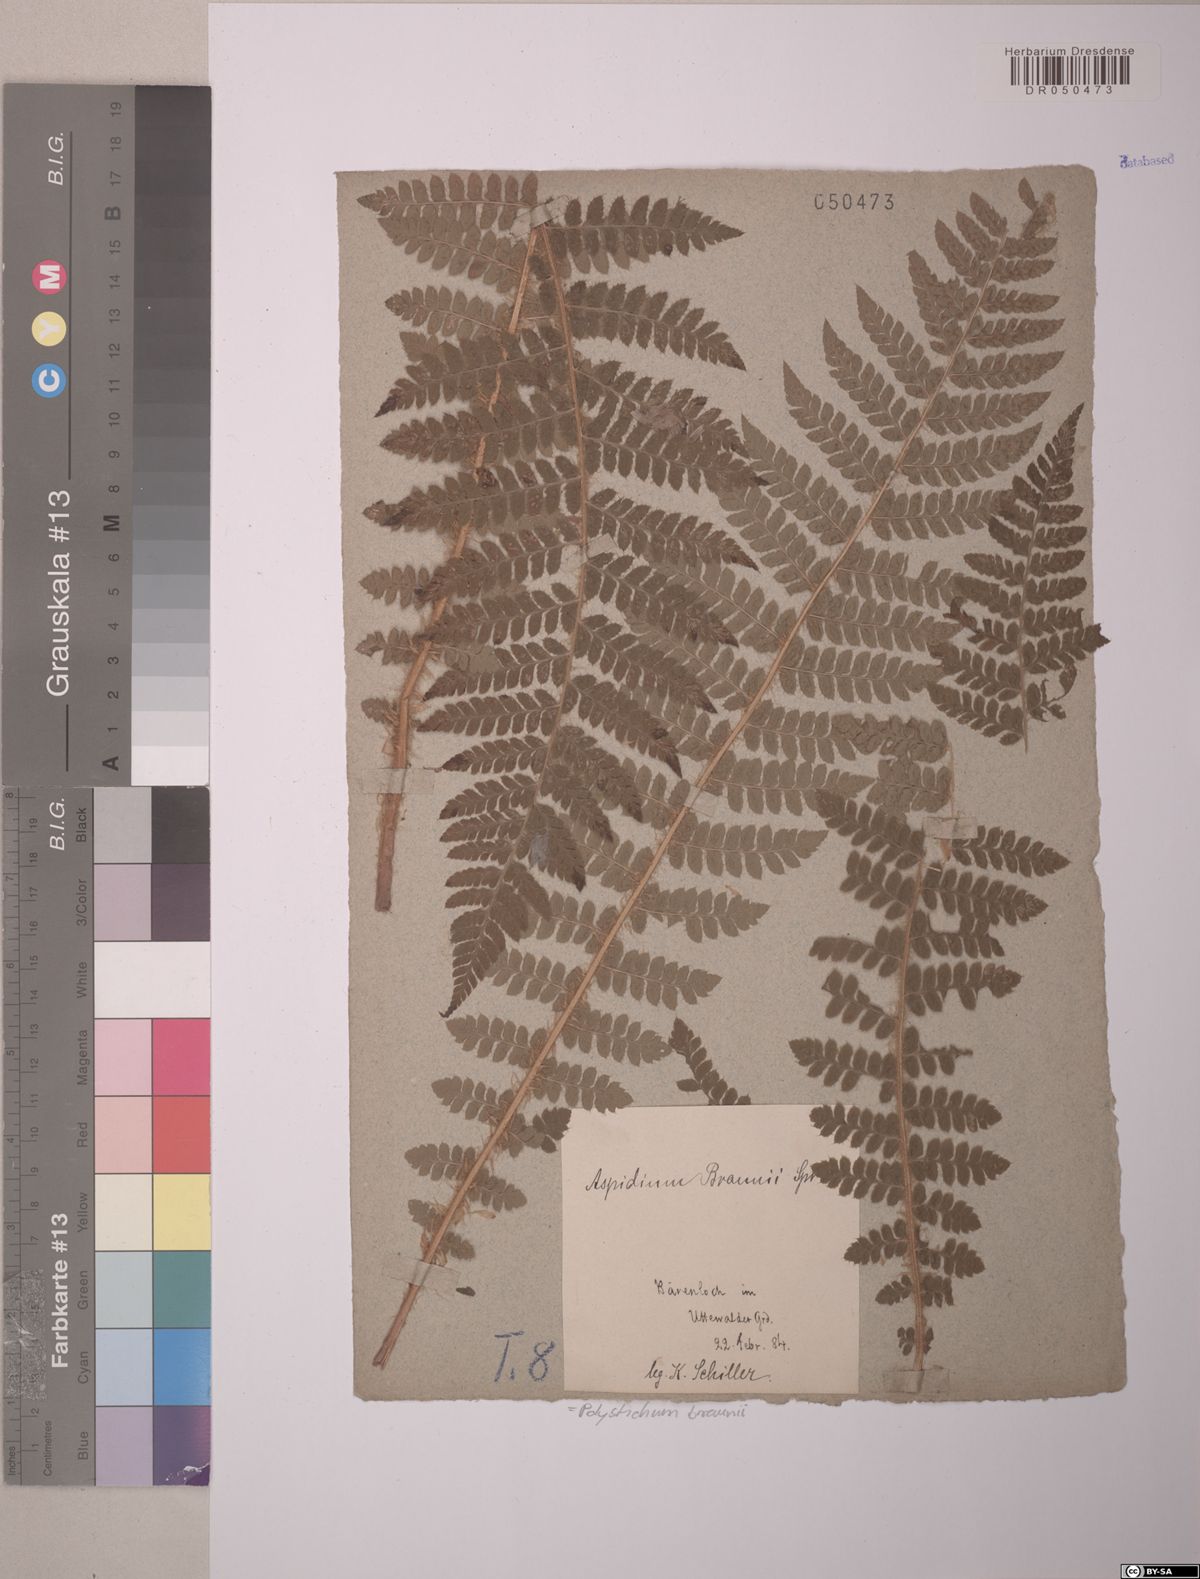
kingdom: Plantae
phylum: Tracheophyta
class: Polypodiopsida
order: Polypodiales
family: Dryopteridaceae
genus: Polystichum
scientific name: Polystichum braunii
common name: Braun's holly fern
